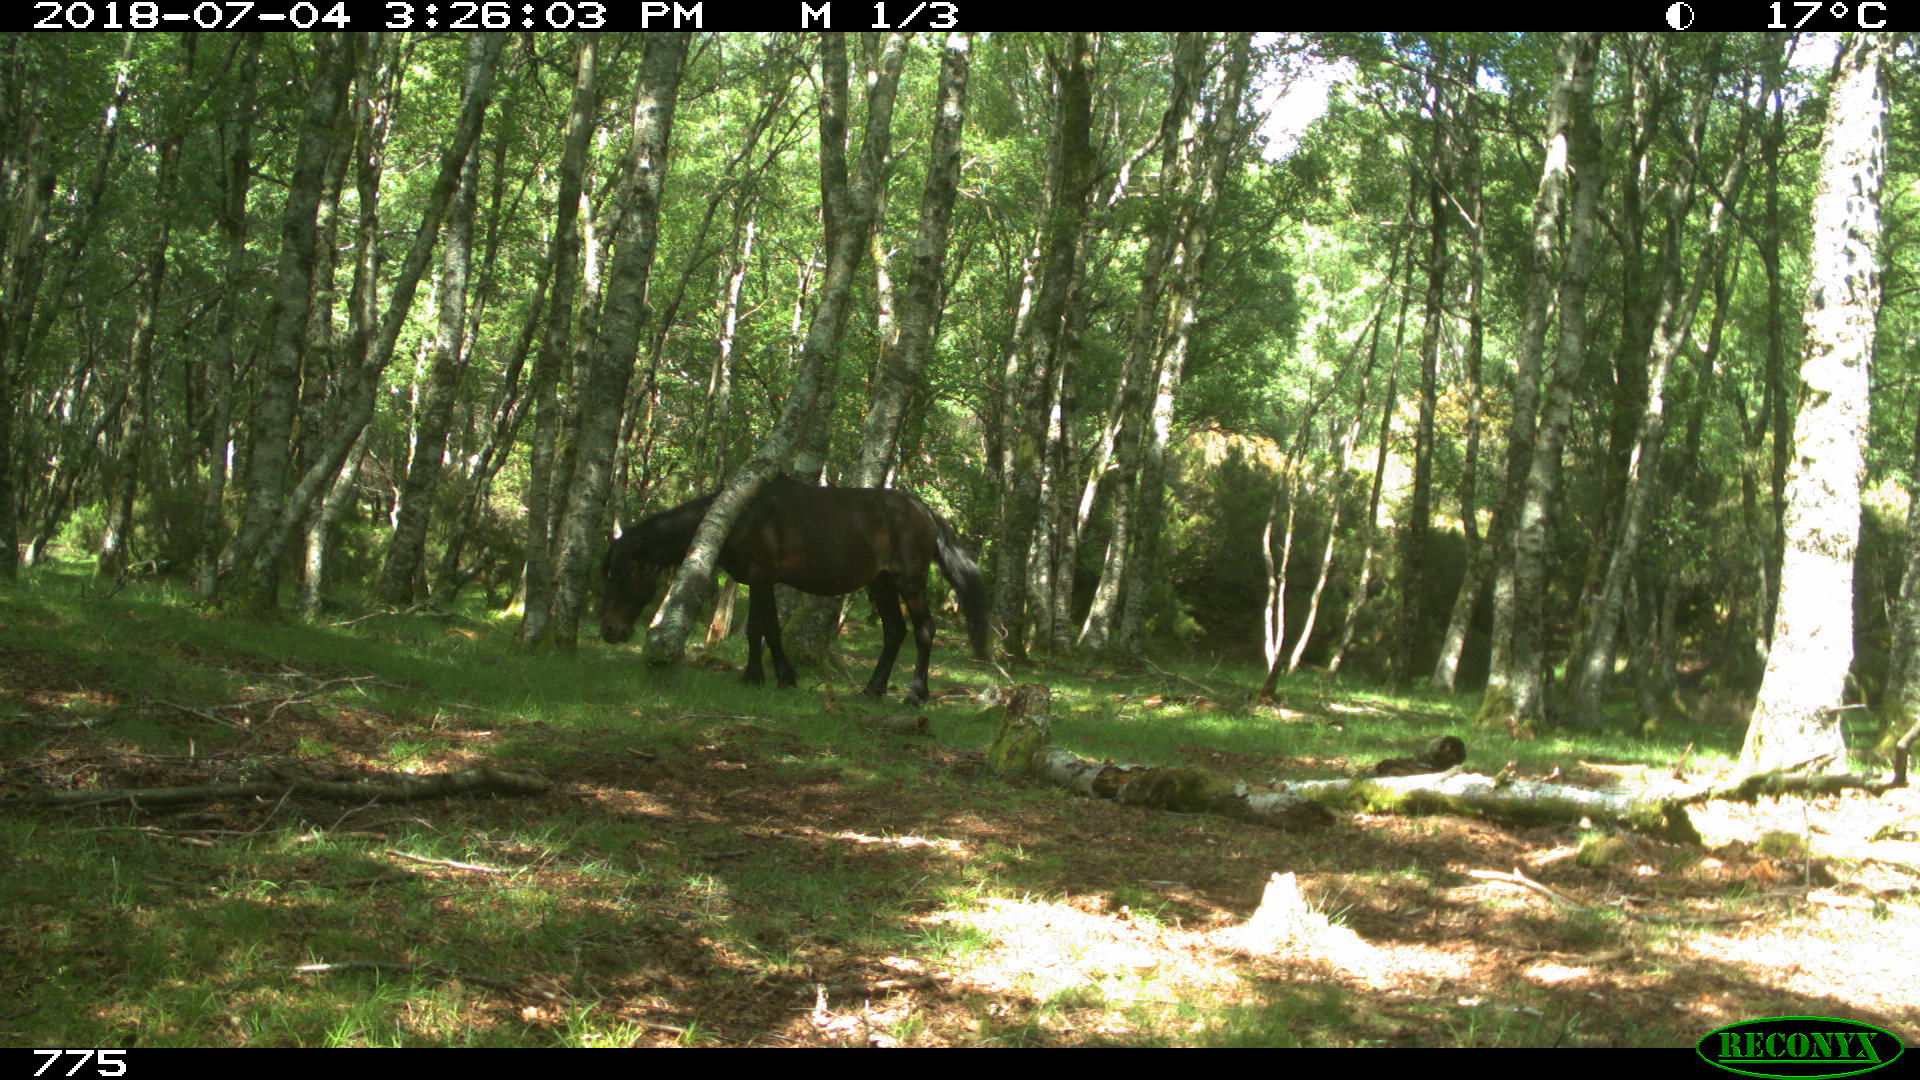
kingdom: Animalia
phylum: Chordata
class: Mammalia
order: Perissodactyla
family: Equidae
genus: Equus
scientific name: Equus caballus
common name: Horse
